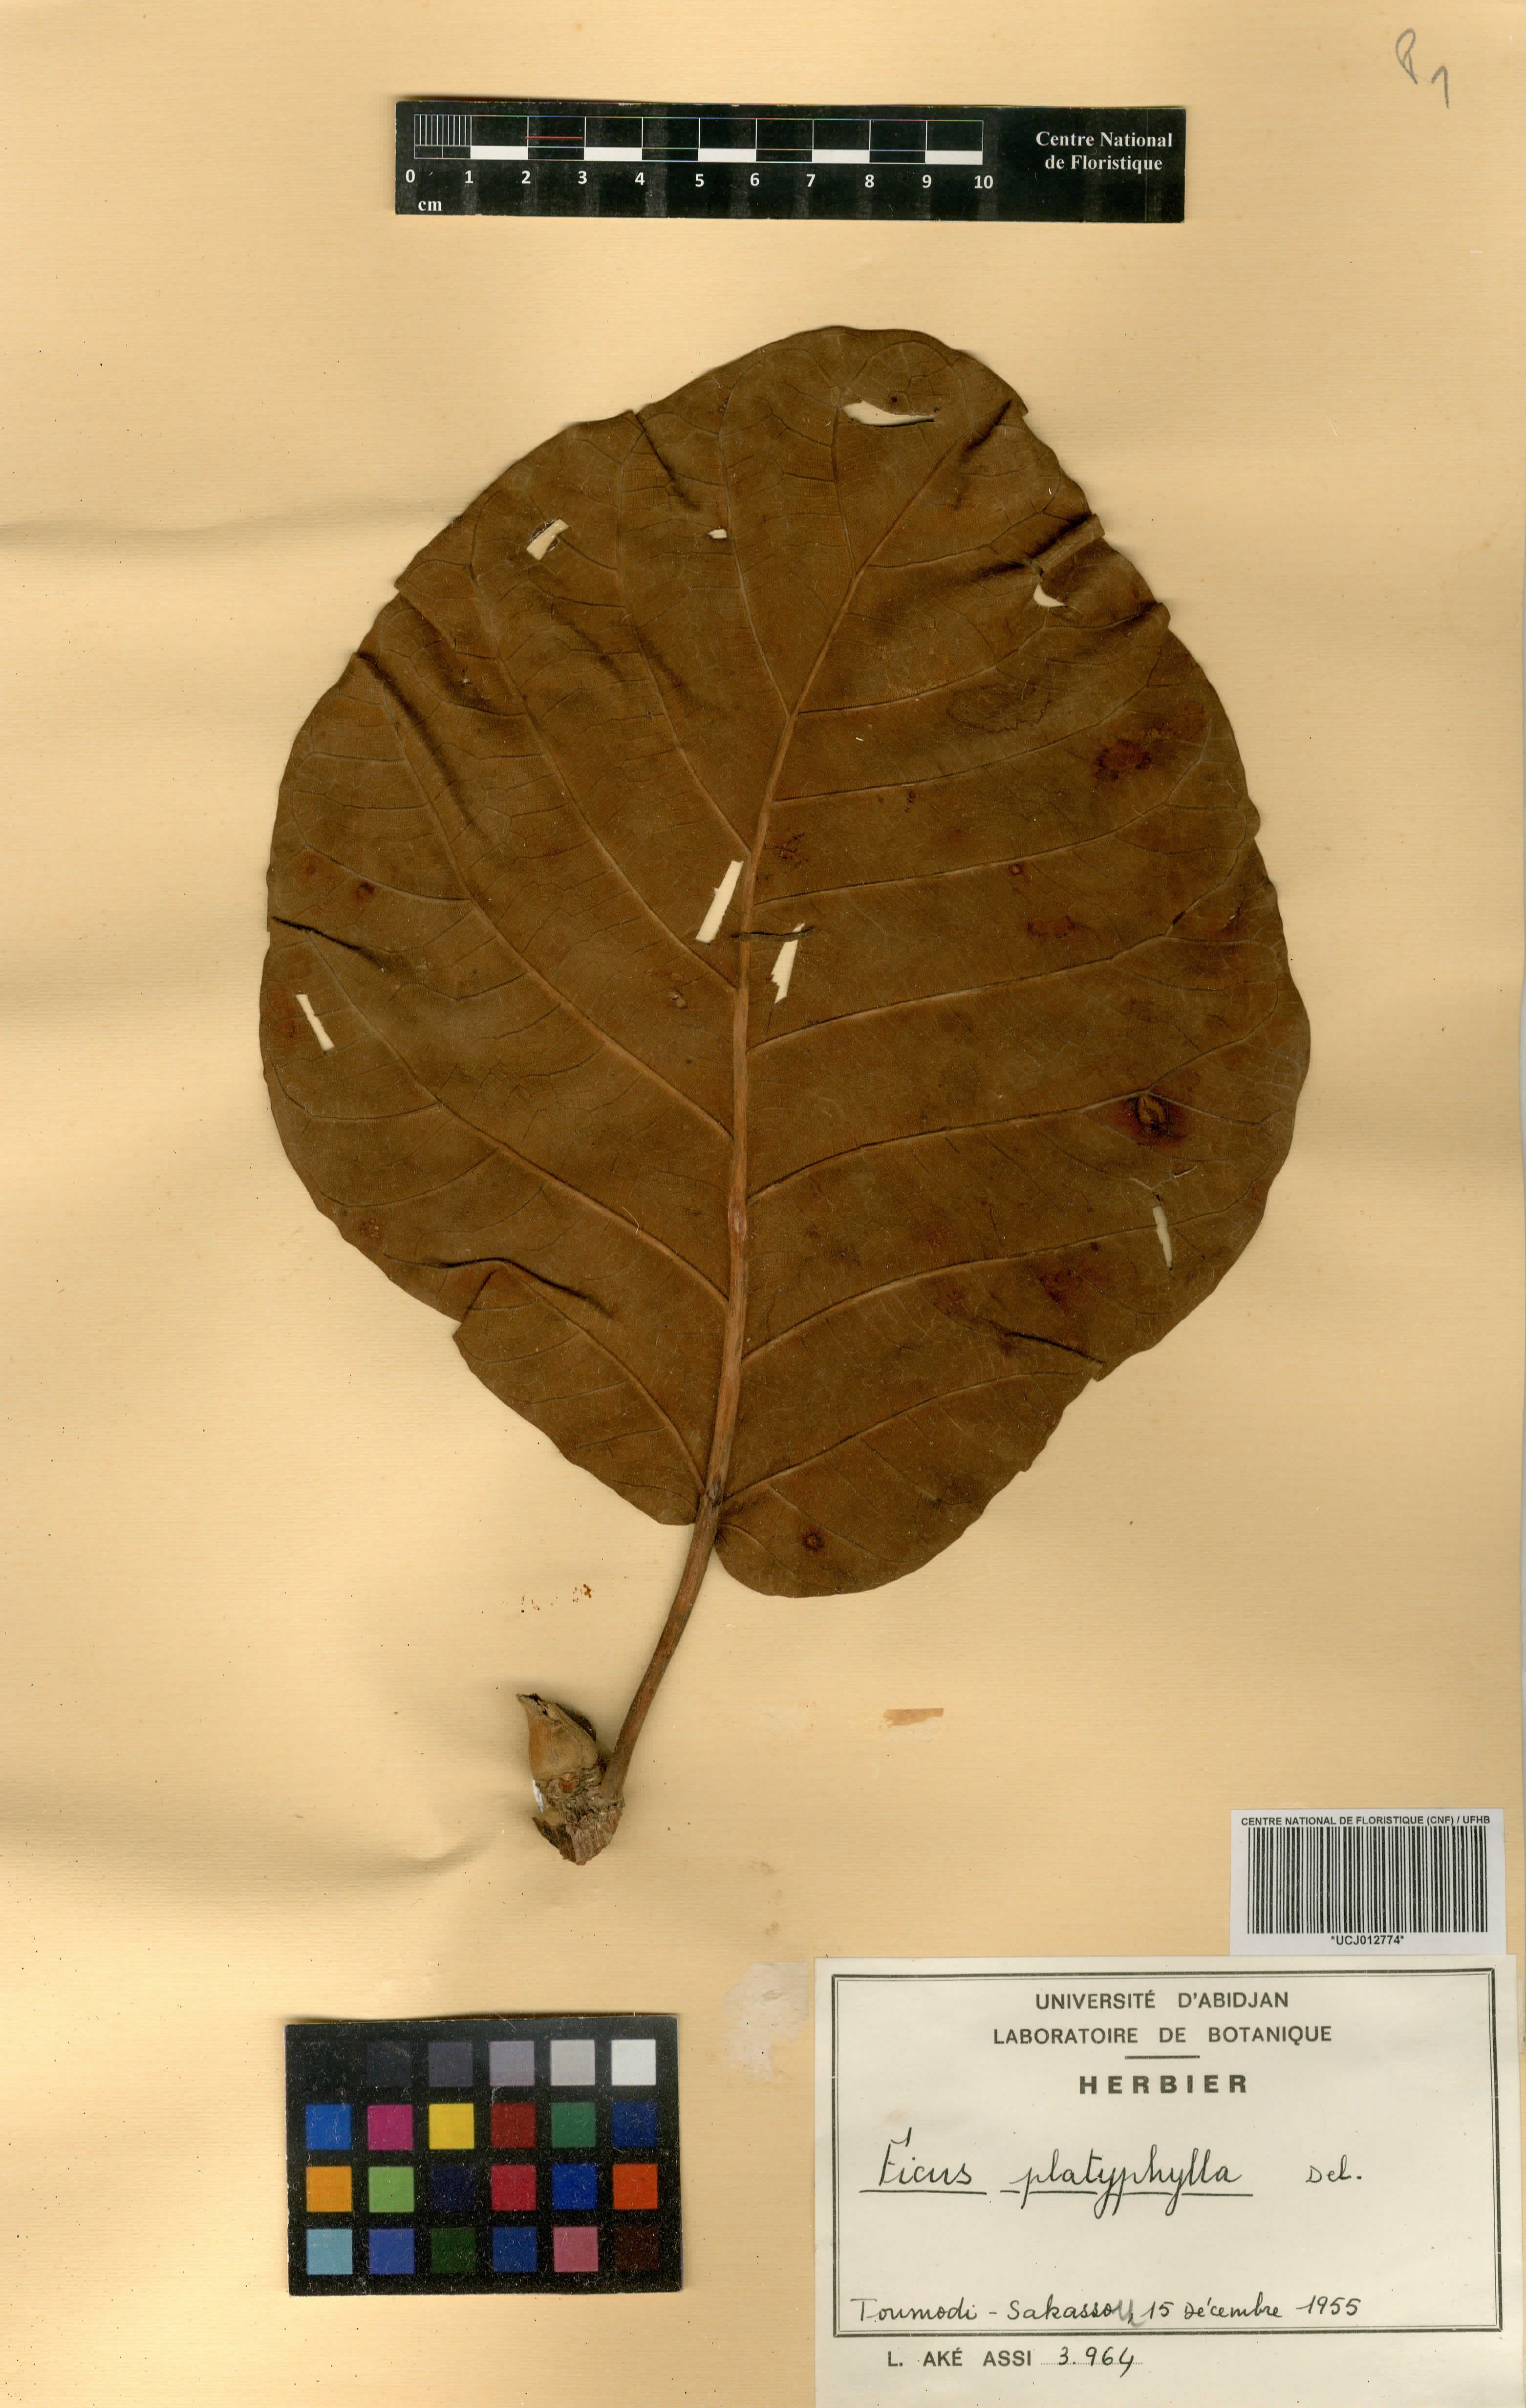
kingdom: Plantae
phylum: Tracheophyta
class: Magnoliopsida
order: Rosales
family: Moraceae
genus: Ficus
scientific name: Ficus platyphylla
